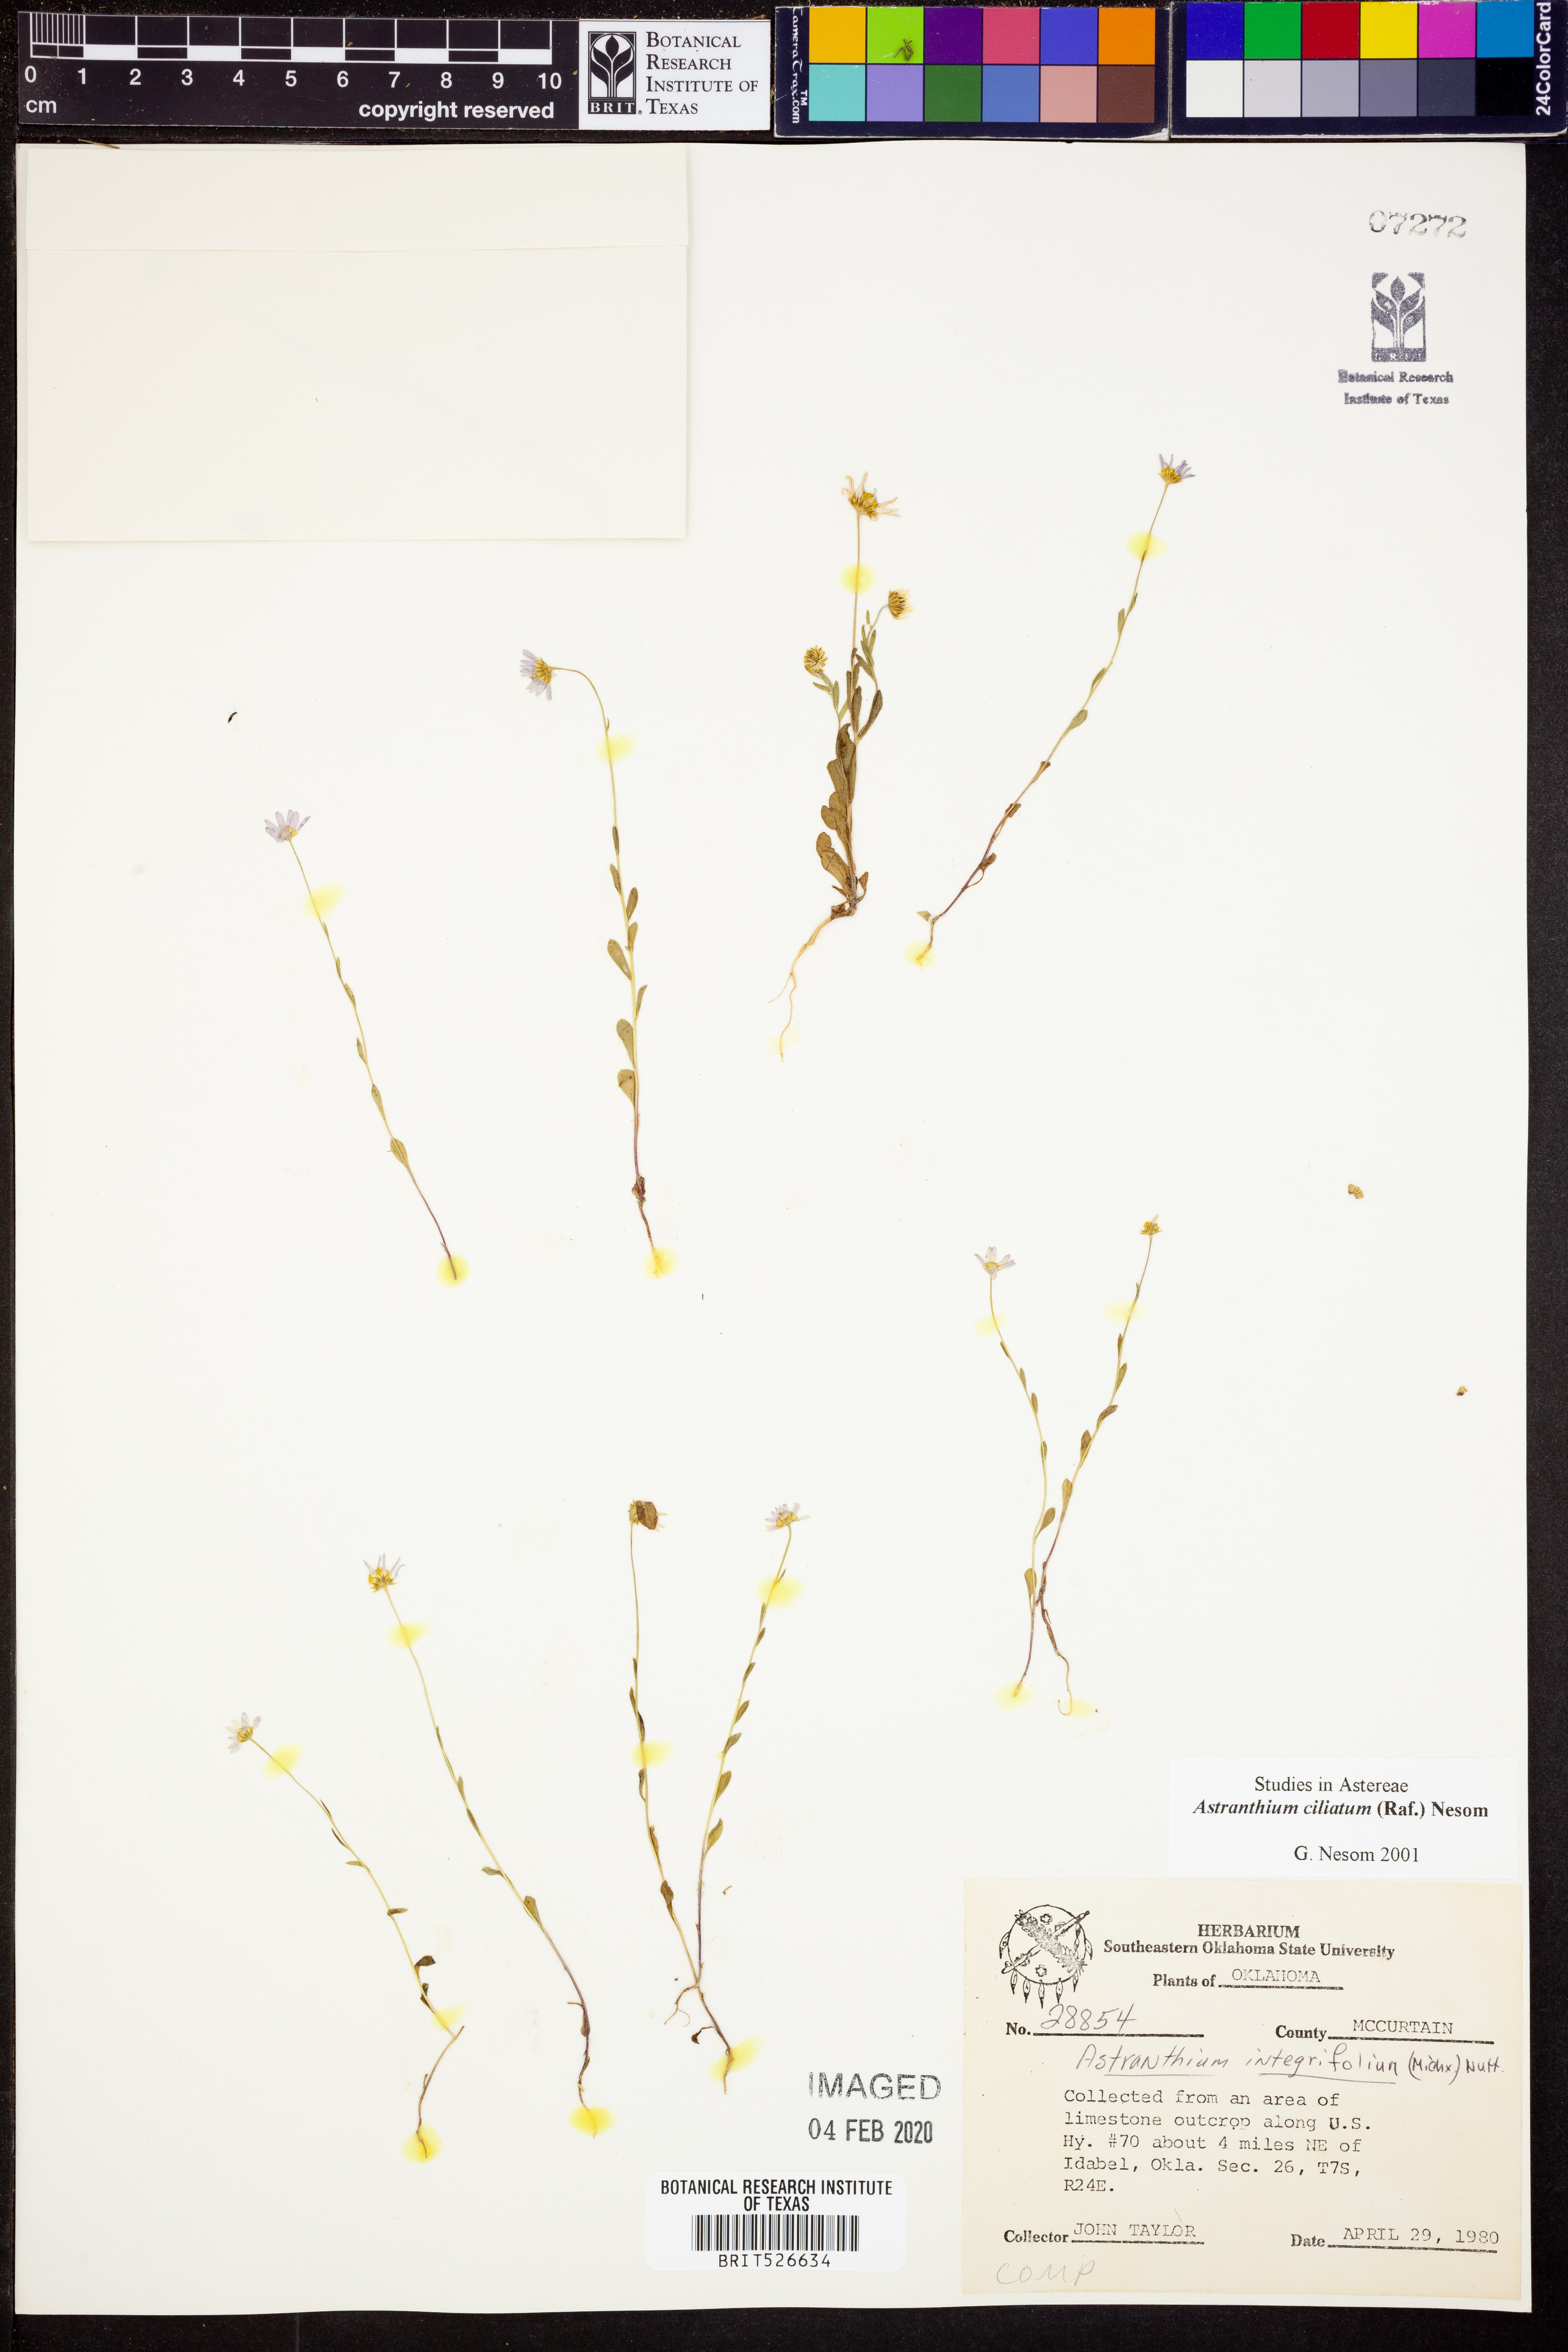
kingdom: Plantae
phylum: Tracheophyta
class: Magnoliopsida
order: Asterales
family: Asteraceae
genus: Astranthium
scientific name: Astranthium ciliatum
